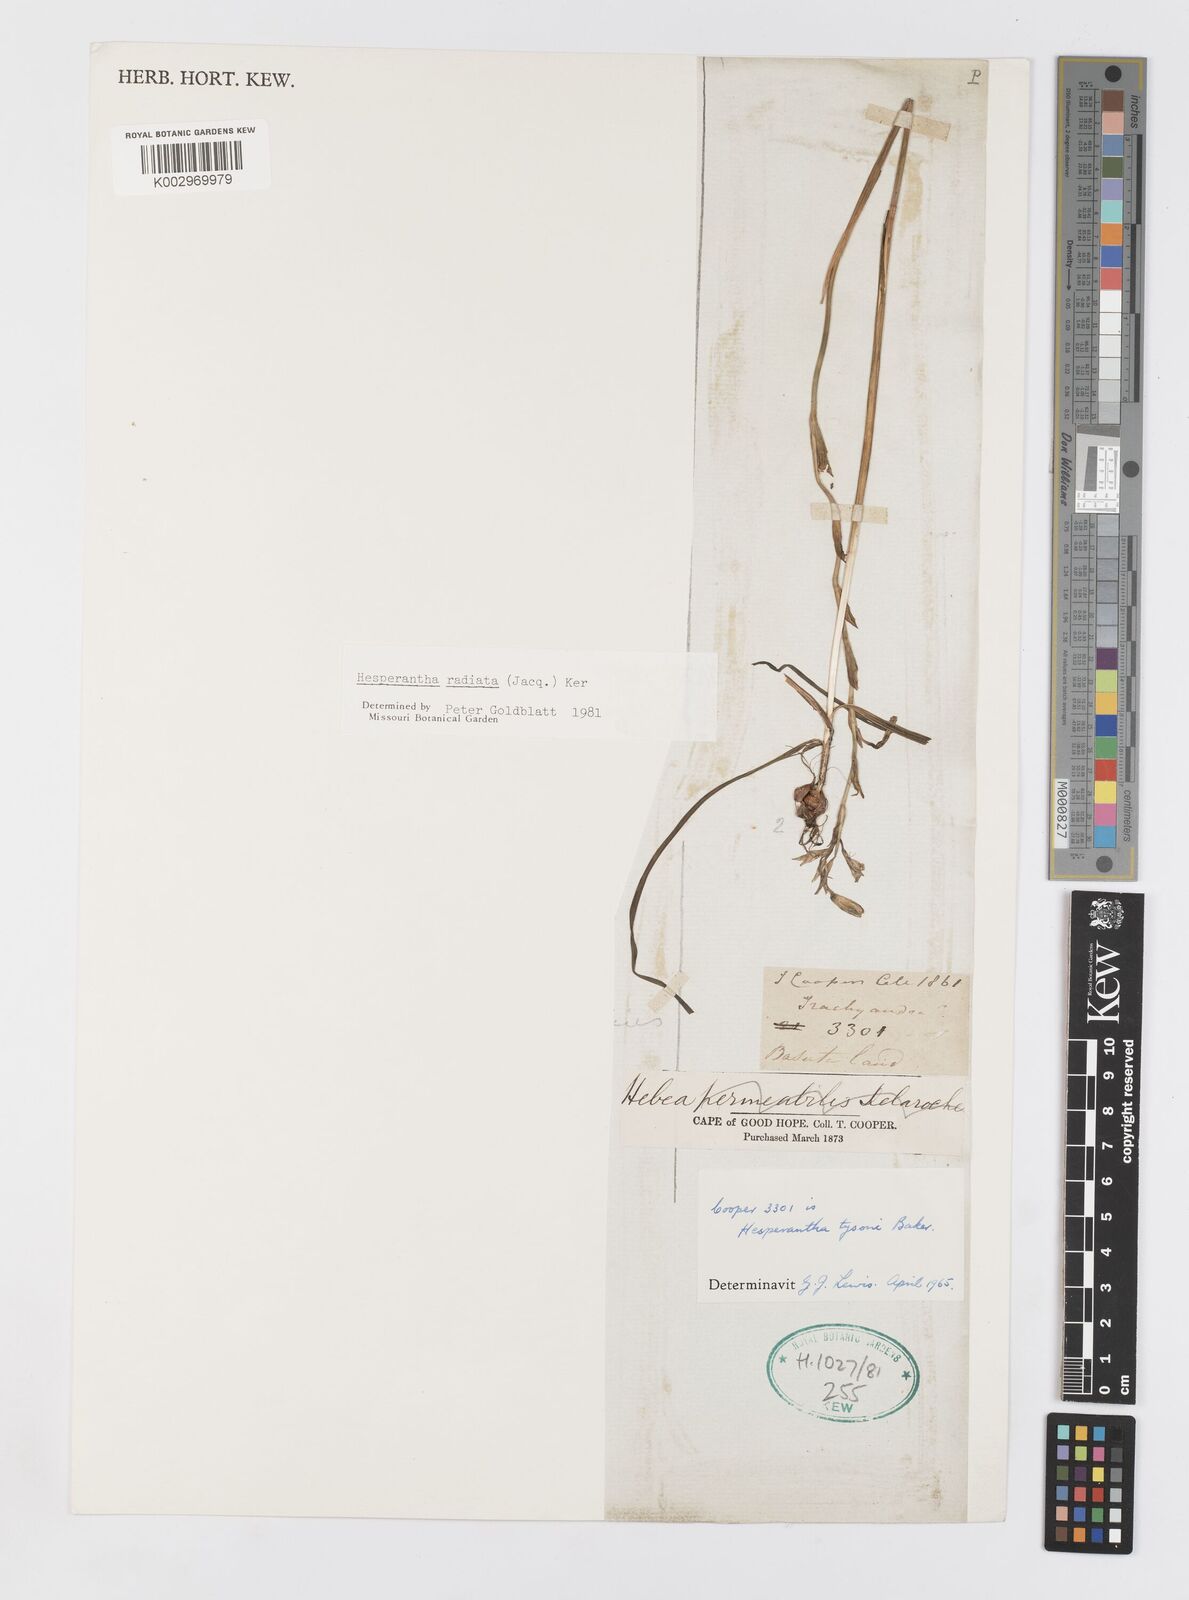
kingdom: Plantae
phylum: Tracheophyta
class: Liliopsida
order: Asparagales
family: Iridaceae
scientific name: Iridaceae
